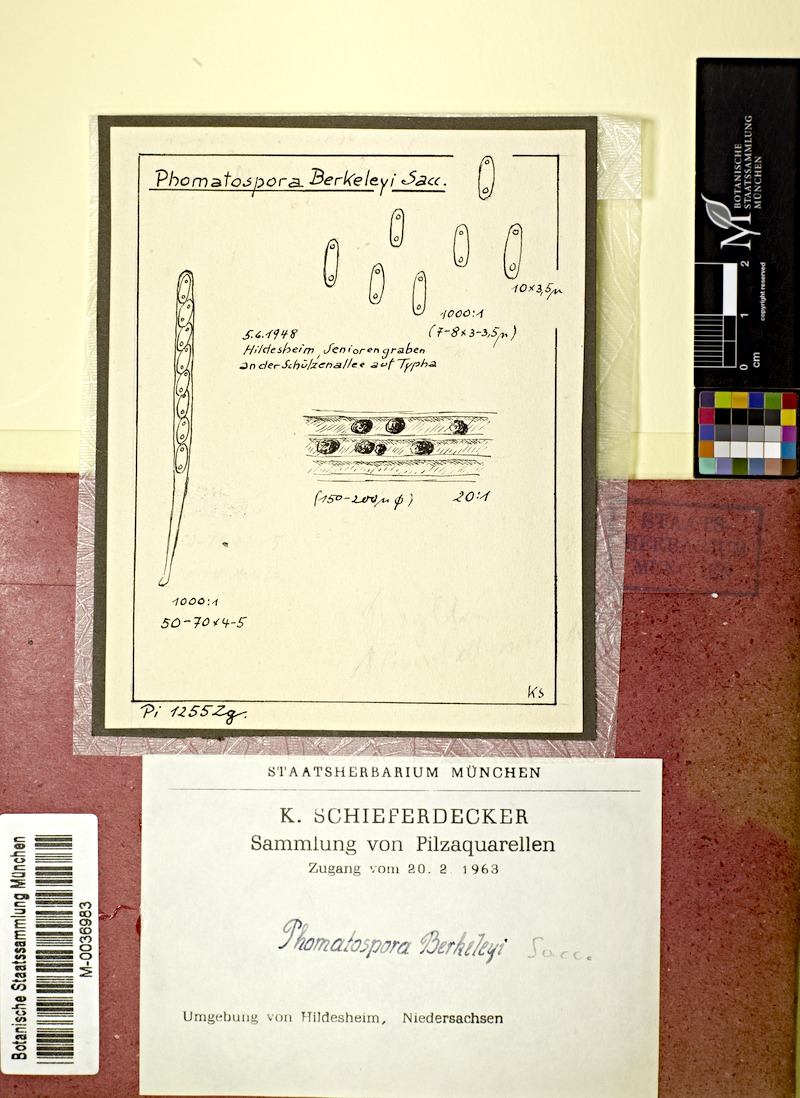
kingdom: Fungi
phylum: Ascomycota
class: Sordariomycetes
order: Phomatosporales
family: Phomatosporaceae
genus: Phomatospora
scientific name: Phomatospora berkeleyi
